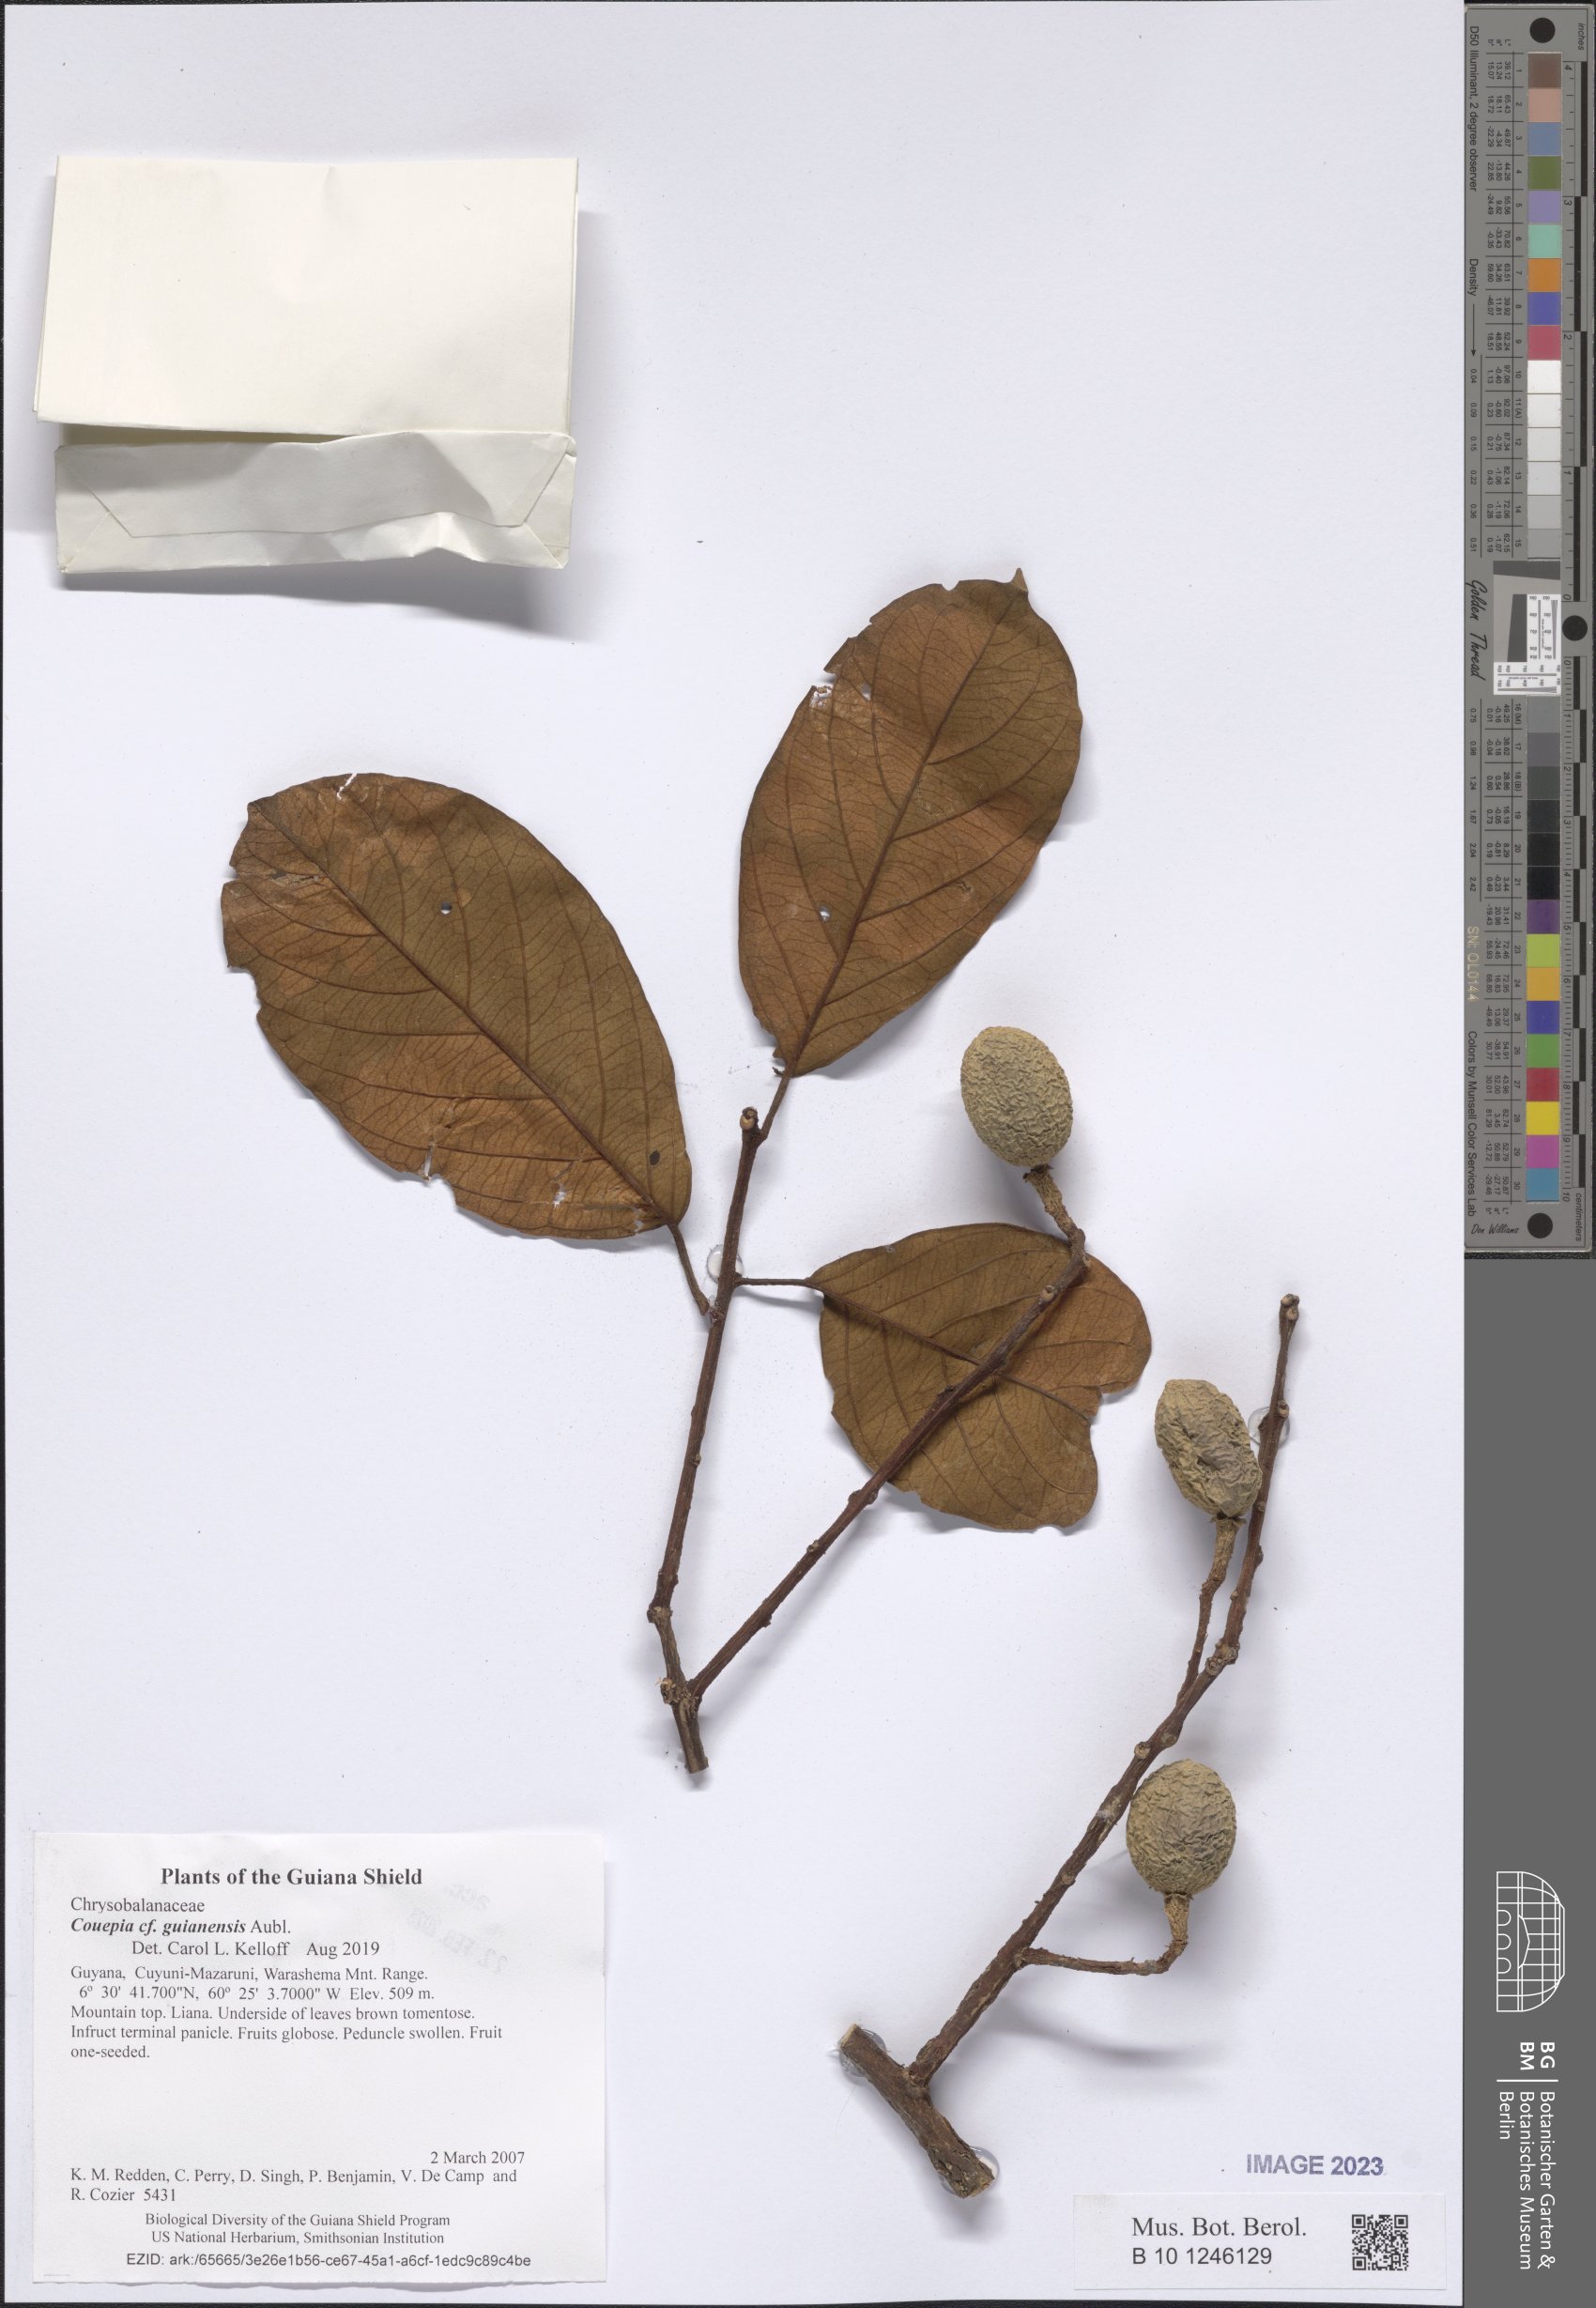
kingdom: Plantae
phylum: Tracheophyta
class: Magnoliopsida
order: Malpighiales
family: Chrysobalanaceae
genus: Couepia
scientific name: Couepia guianensis
